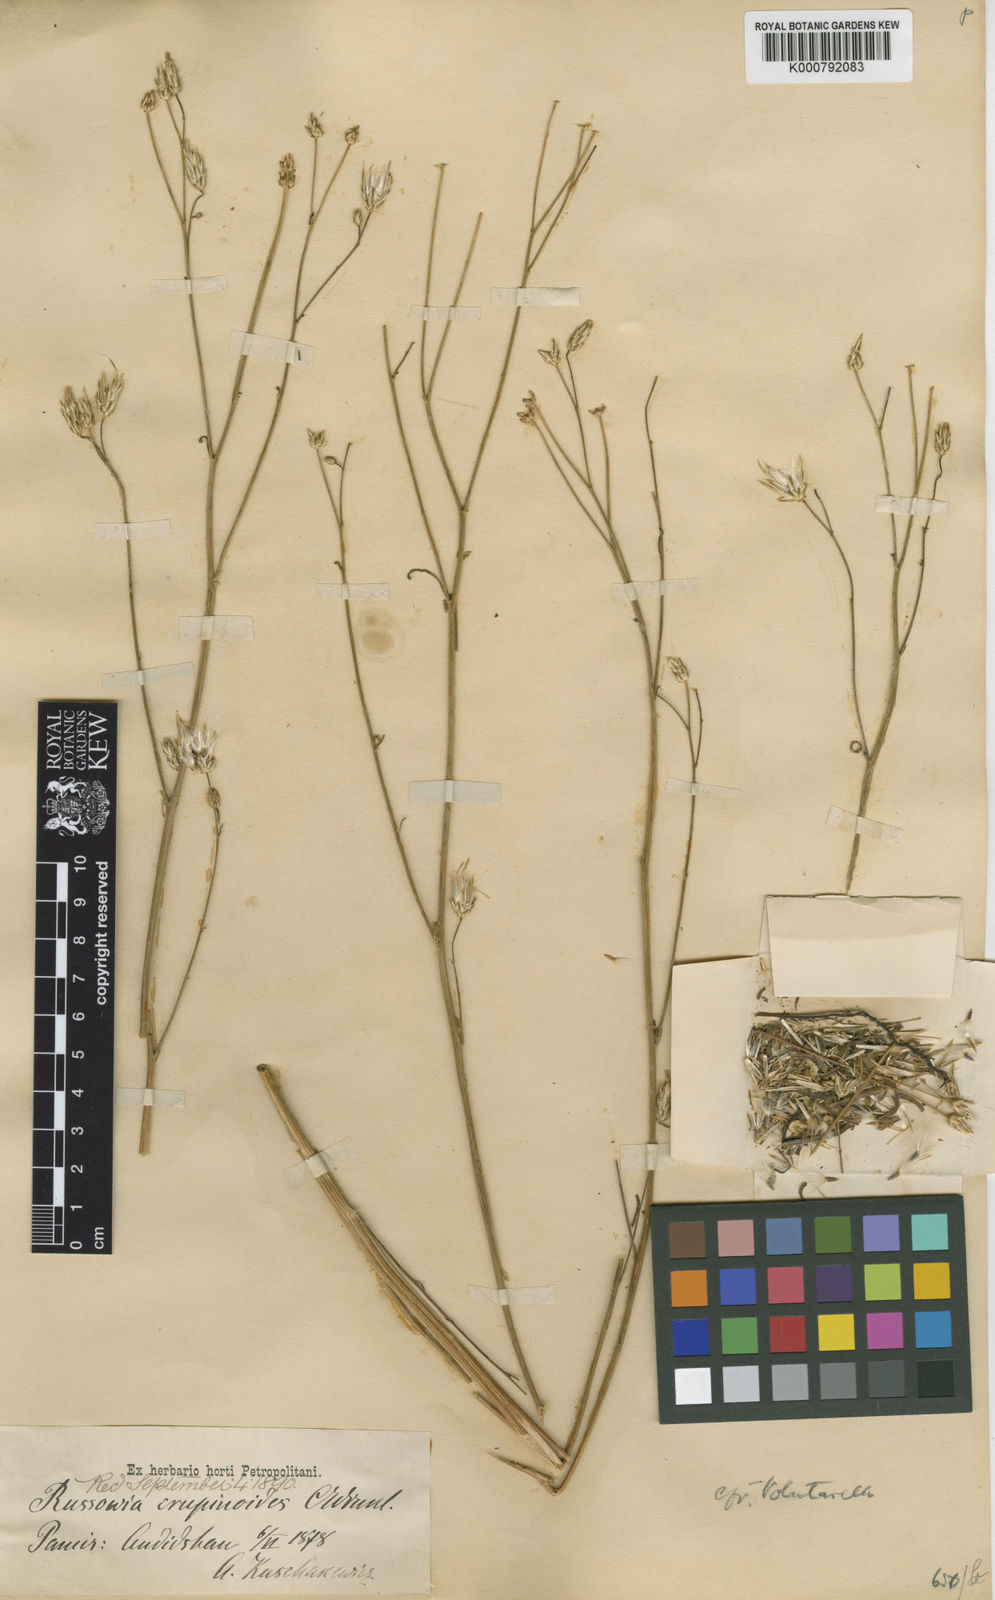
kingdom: Plantae
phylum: Tracheophyta
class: Magnoliopsida
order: Asterales
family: Asteraceae
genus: Russowia
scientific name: Russowia sogdiana
